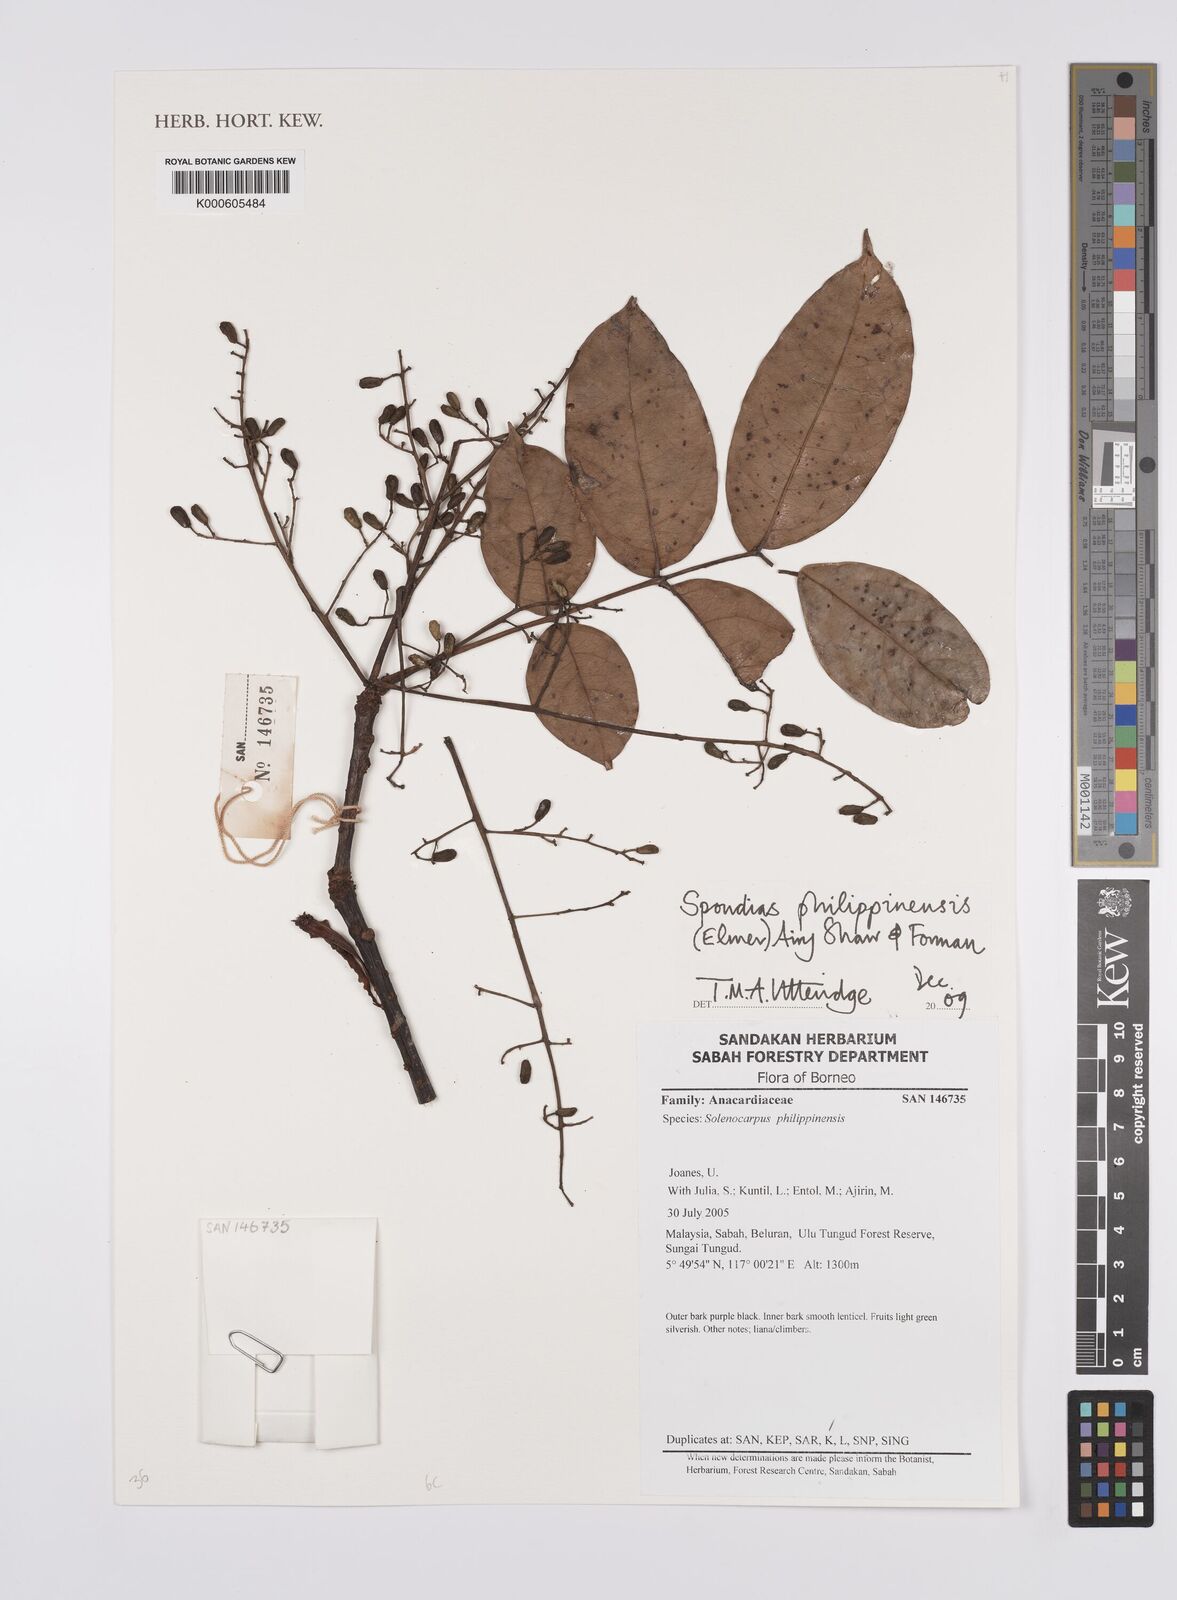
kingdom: Plantae
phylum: Tracheophyta
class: Magnoliopsida
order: Sapindales
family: Anacardiaceae
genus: Spondias
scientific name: Spondias philippinensis
